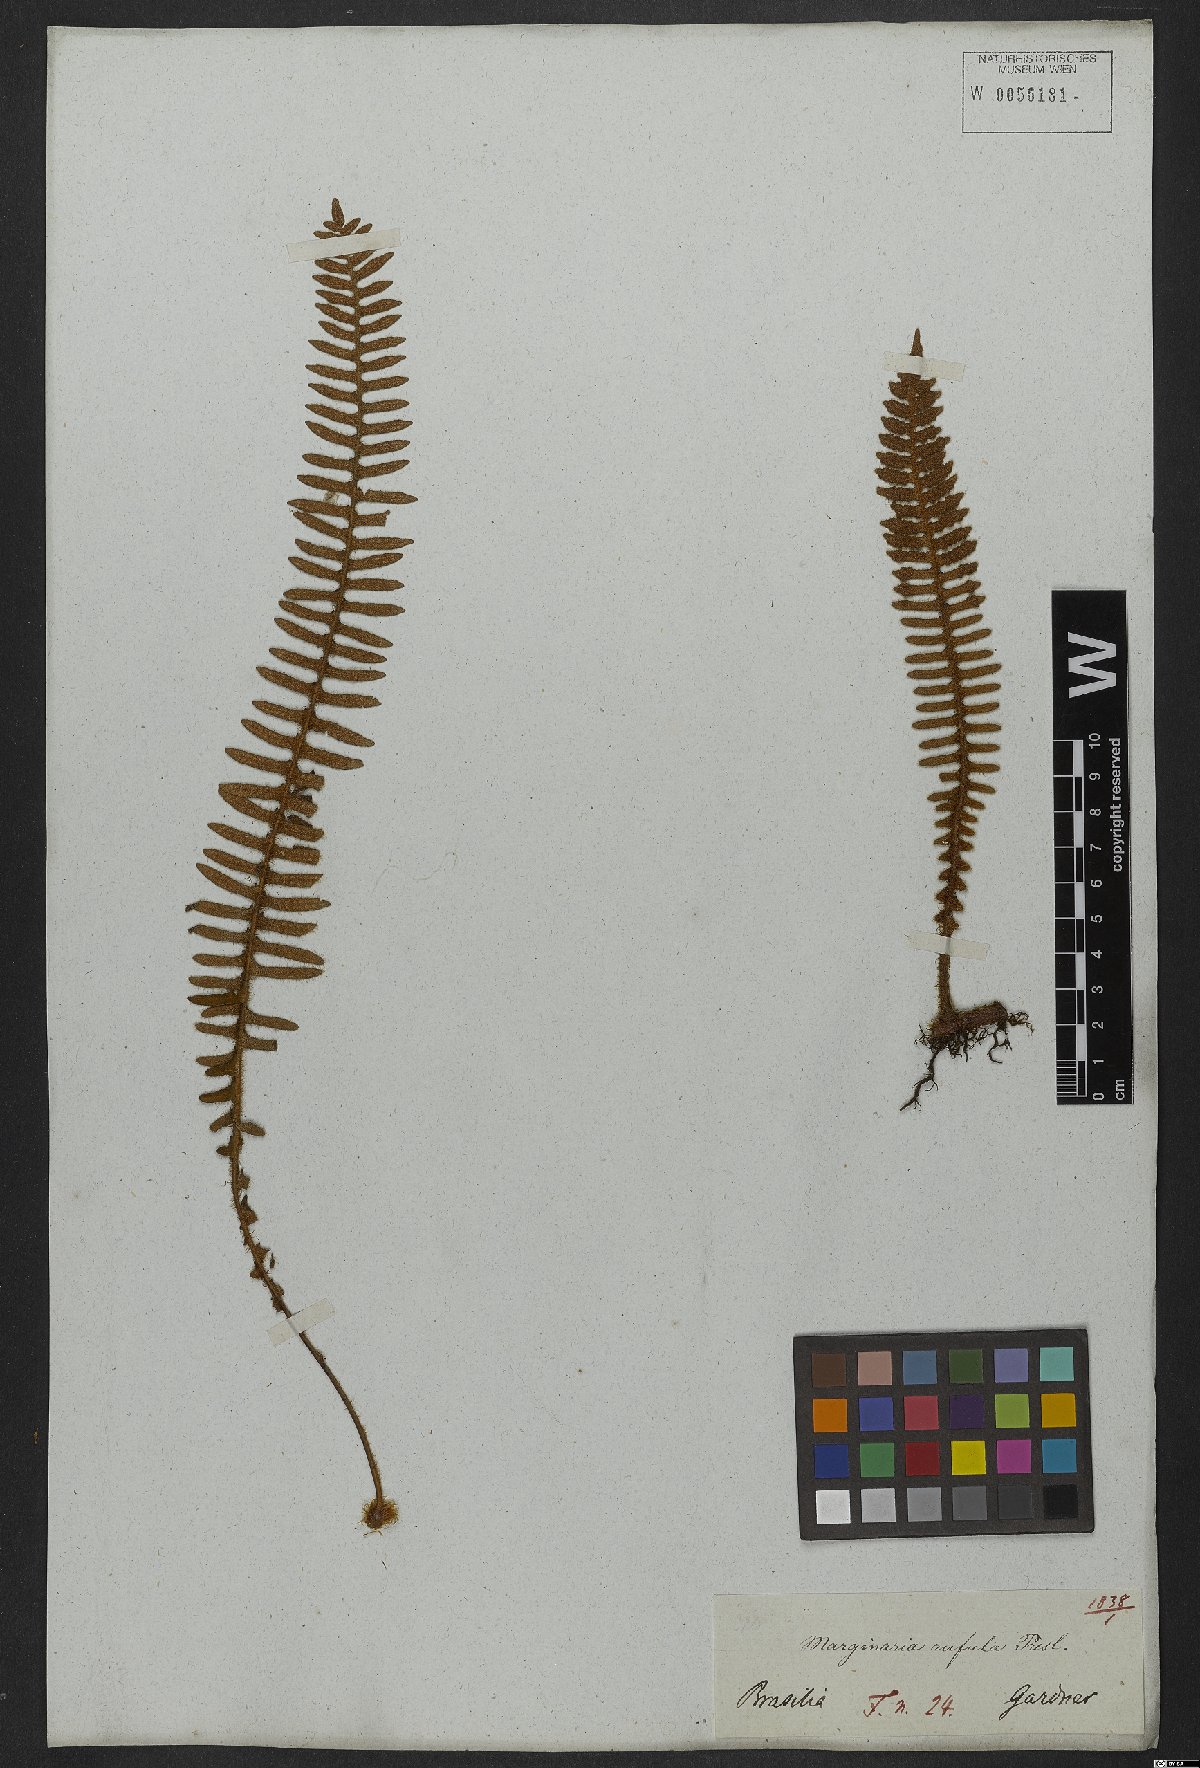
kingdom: Plantae
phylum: Tracheophyta
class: Polypodiopsida
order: Polypodiales
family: Polypodiaceae
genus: Pleopeltis
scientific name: Pleopeltis lepidopteris
